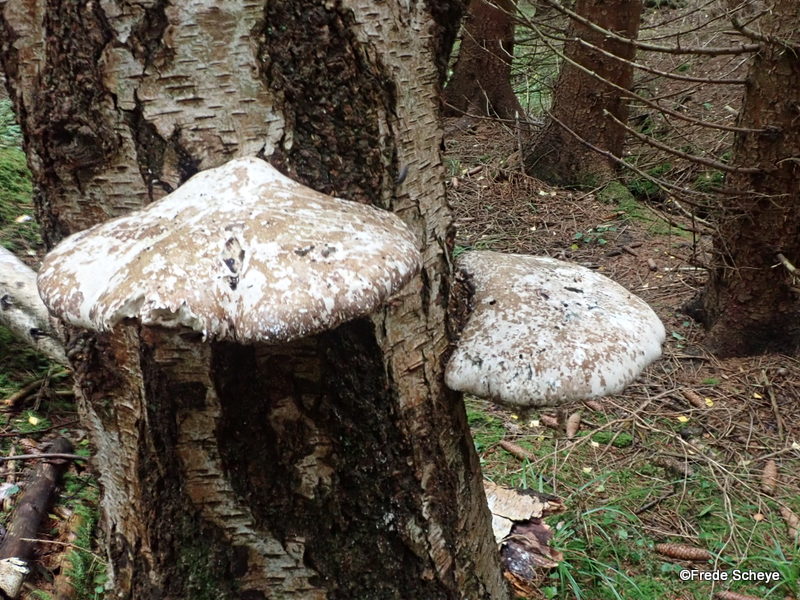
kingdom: Fungi
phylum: Basidiomycota
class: Agaricomycetes
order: Polyporales
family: Fomitopsidaceae
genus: Fomitopsis
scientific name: Fomitopsis betulina
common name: birkeporesvamp
